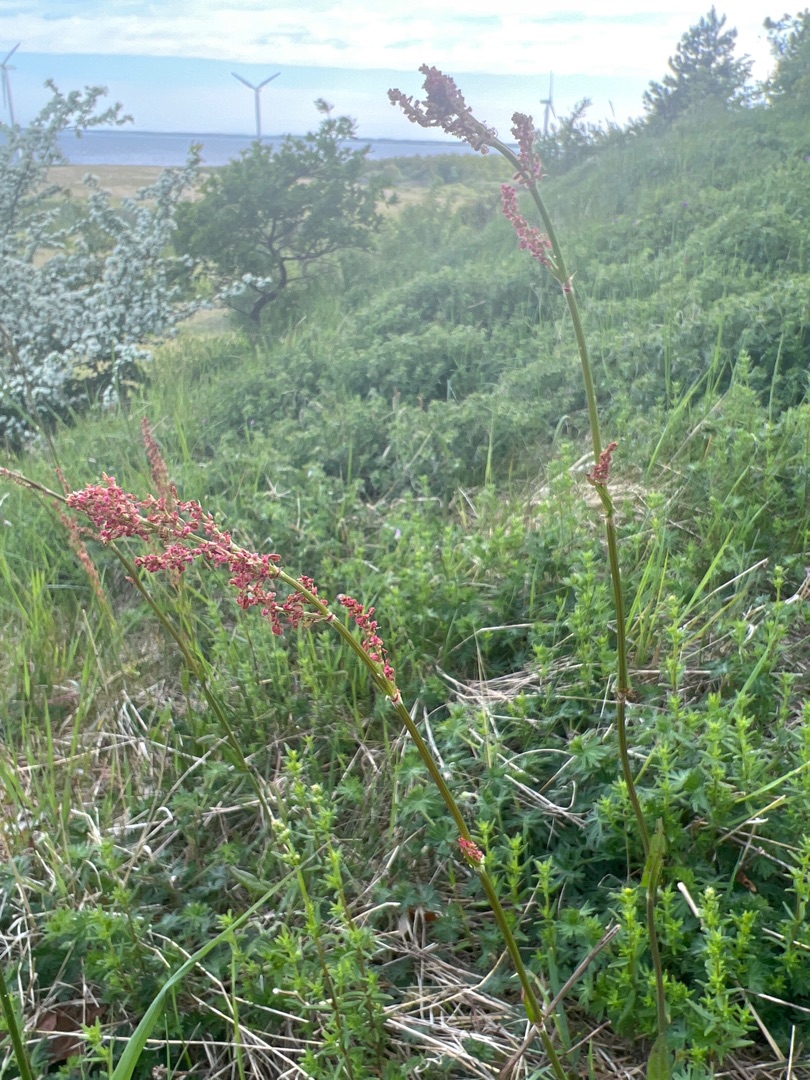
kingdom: Plantae
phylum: Tracheophyta
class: Magnoliopsida
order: Caryophyllales
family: Polygonaceae
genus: Rumex
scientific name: Rumex acetosa
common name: Almindelig syre
